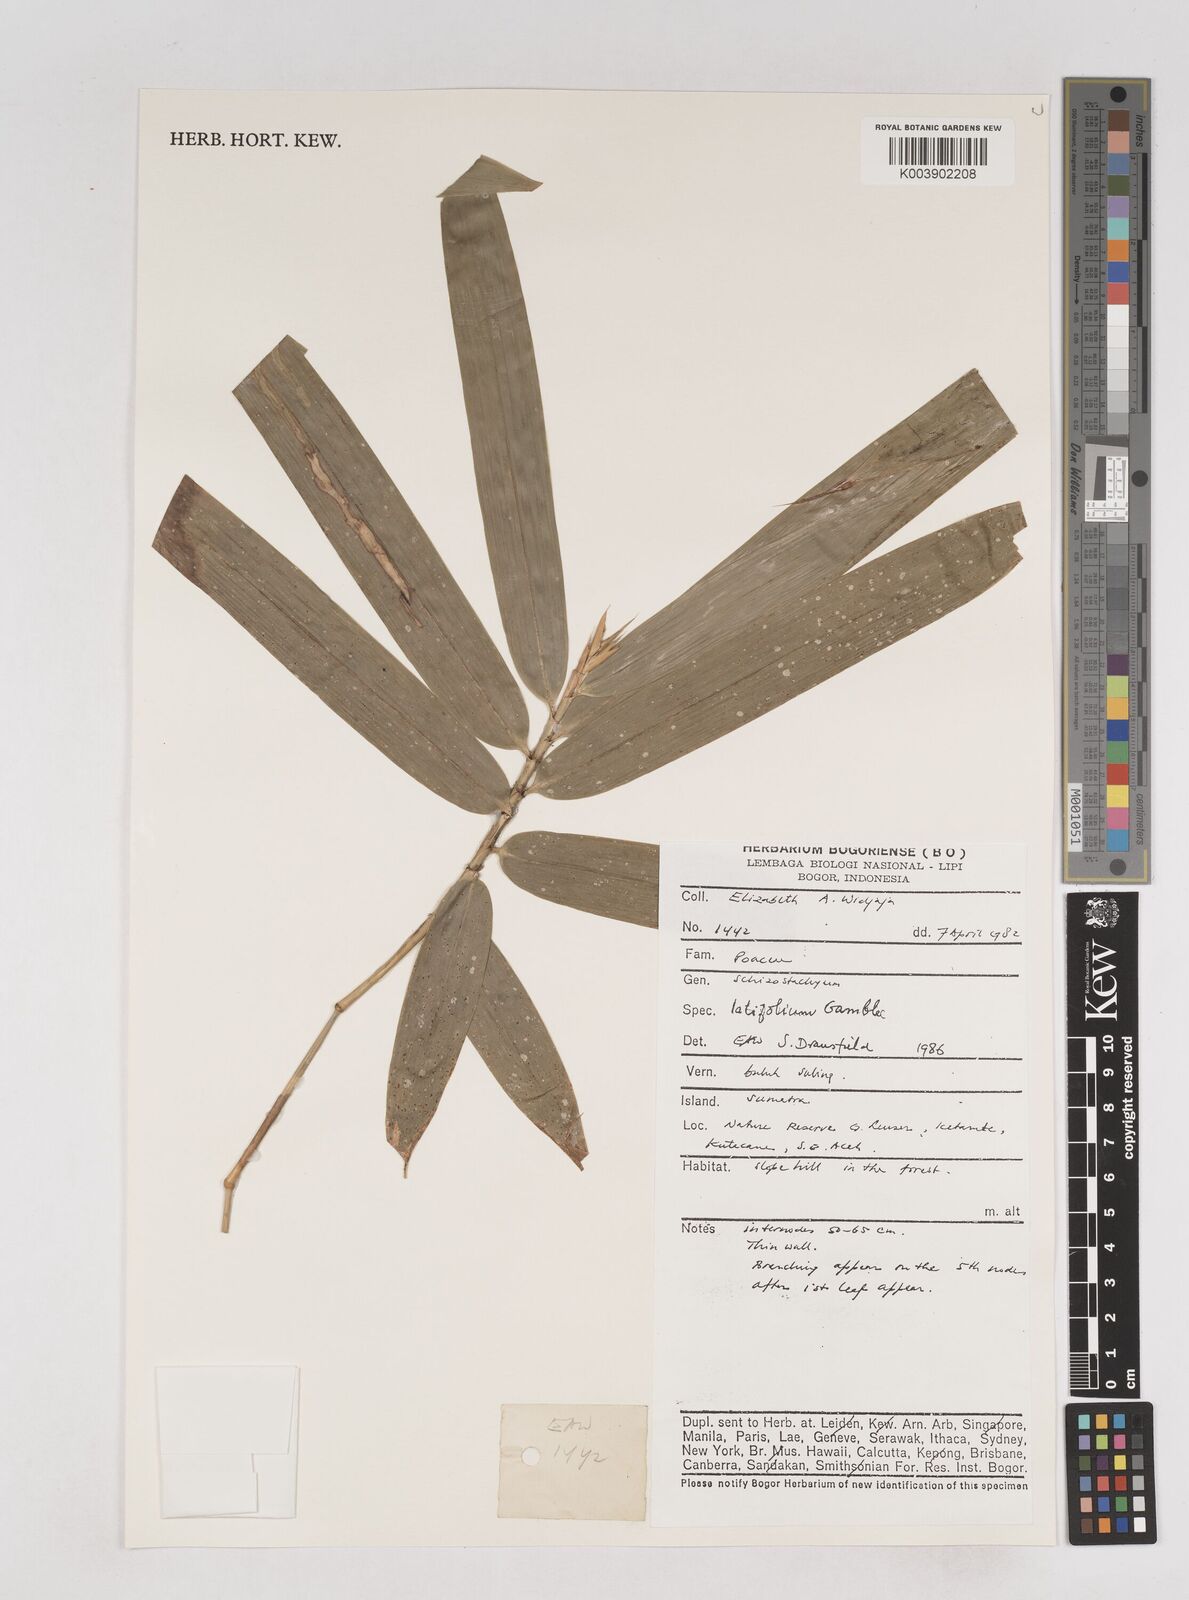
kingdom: Plantae
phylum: Tracheophyta
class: Liliopsida
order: Poales
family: Poaceae
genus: Schizostachyum
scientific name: Schizostachyum latifolium
